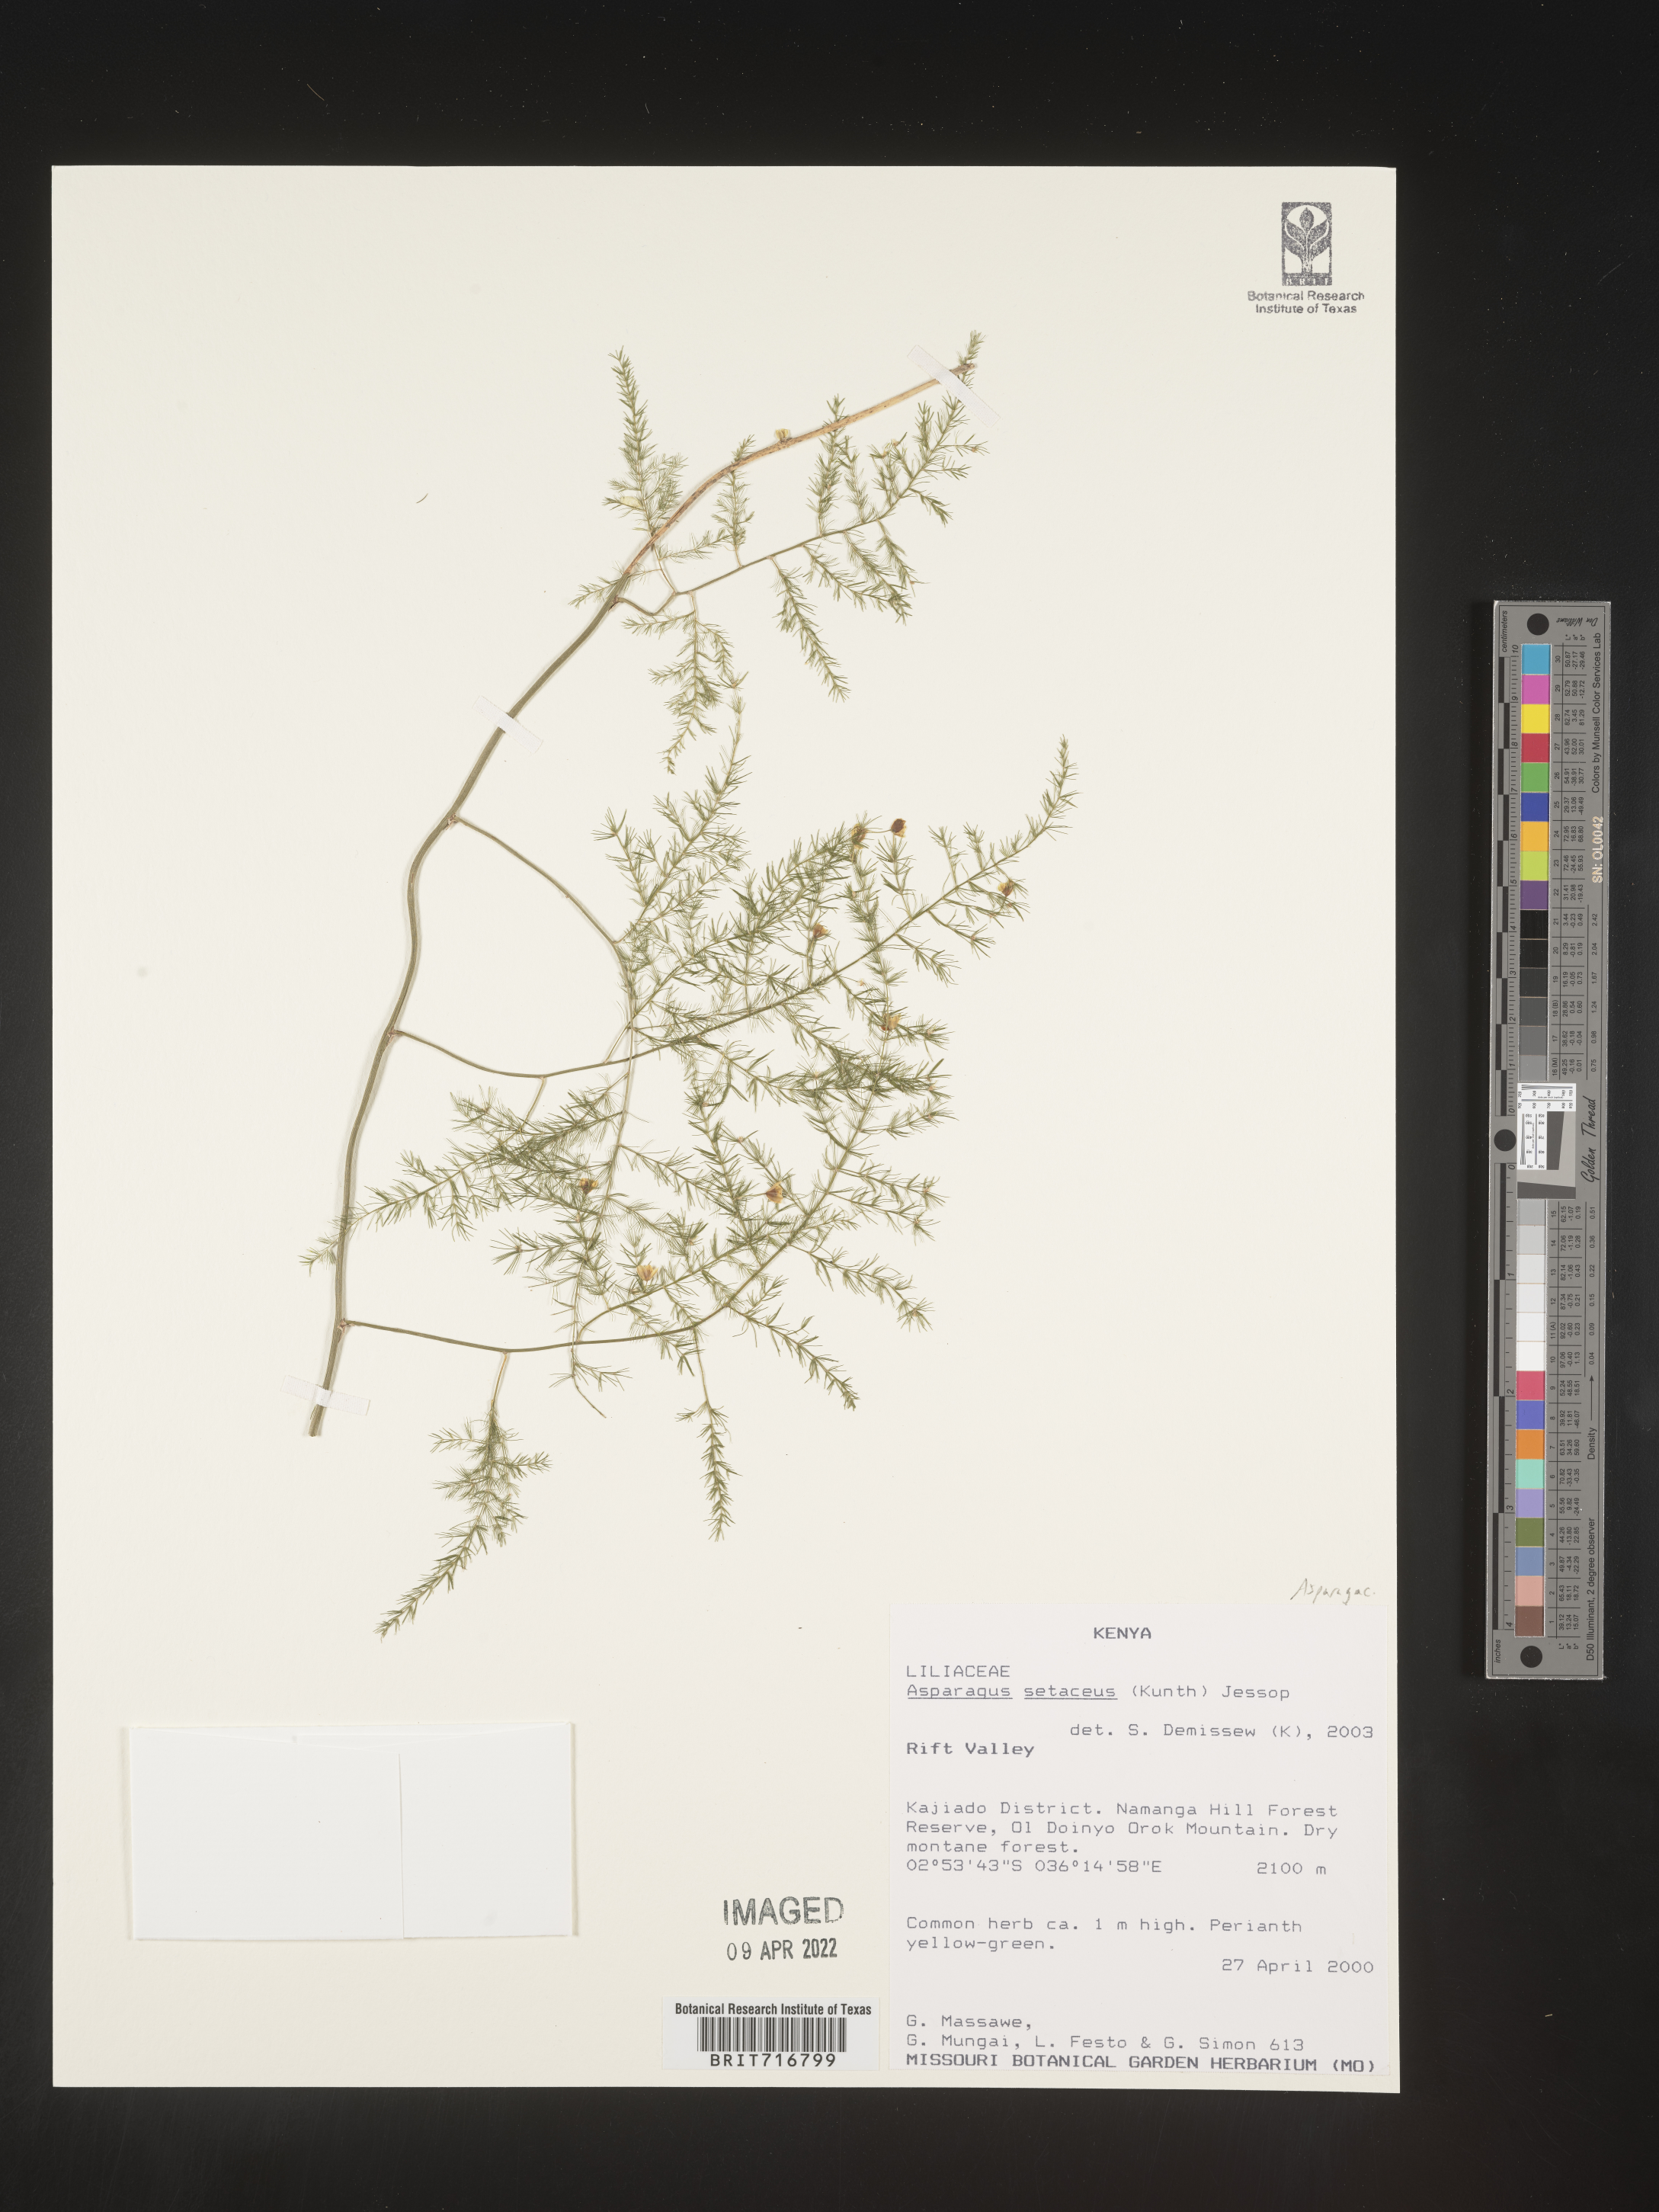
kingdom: Plantae
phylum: Tracheophyta
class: Liliopsida
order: Asparagales
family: Asparagaceae
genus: Asparagus
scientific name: Asparagus
